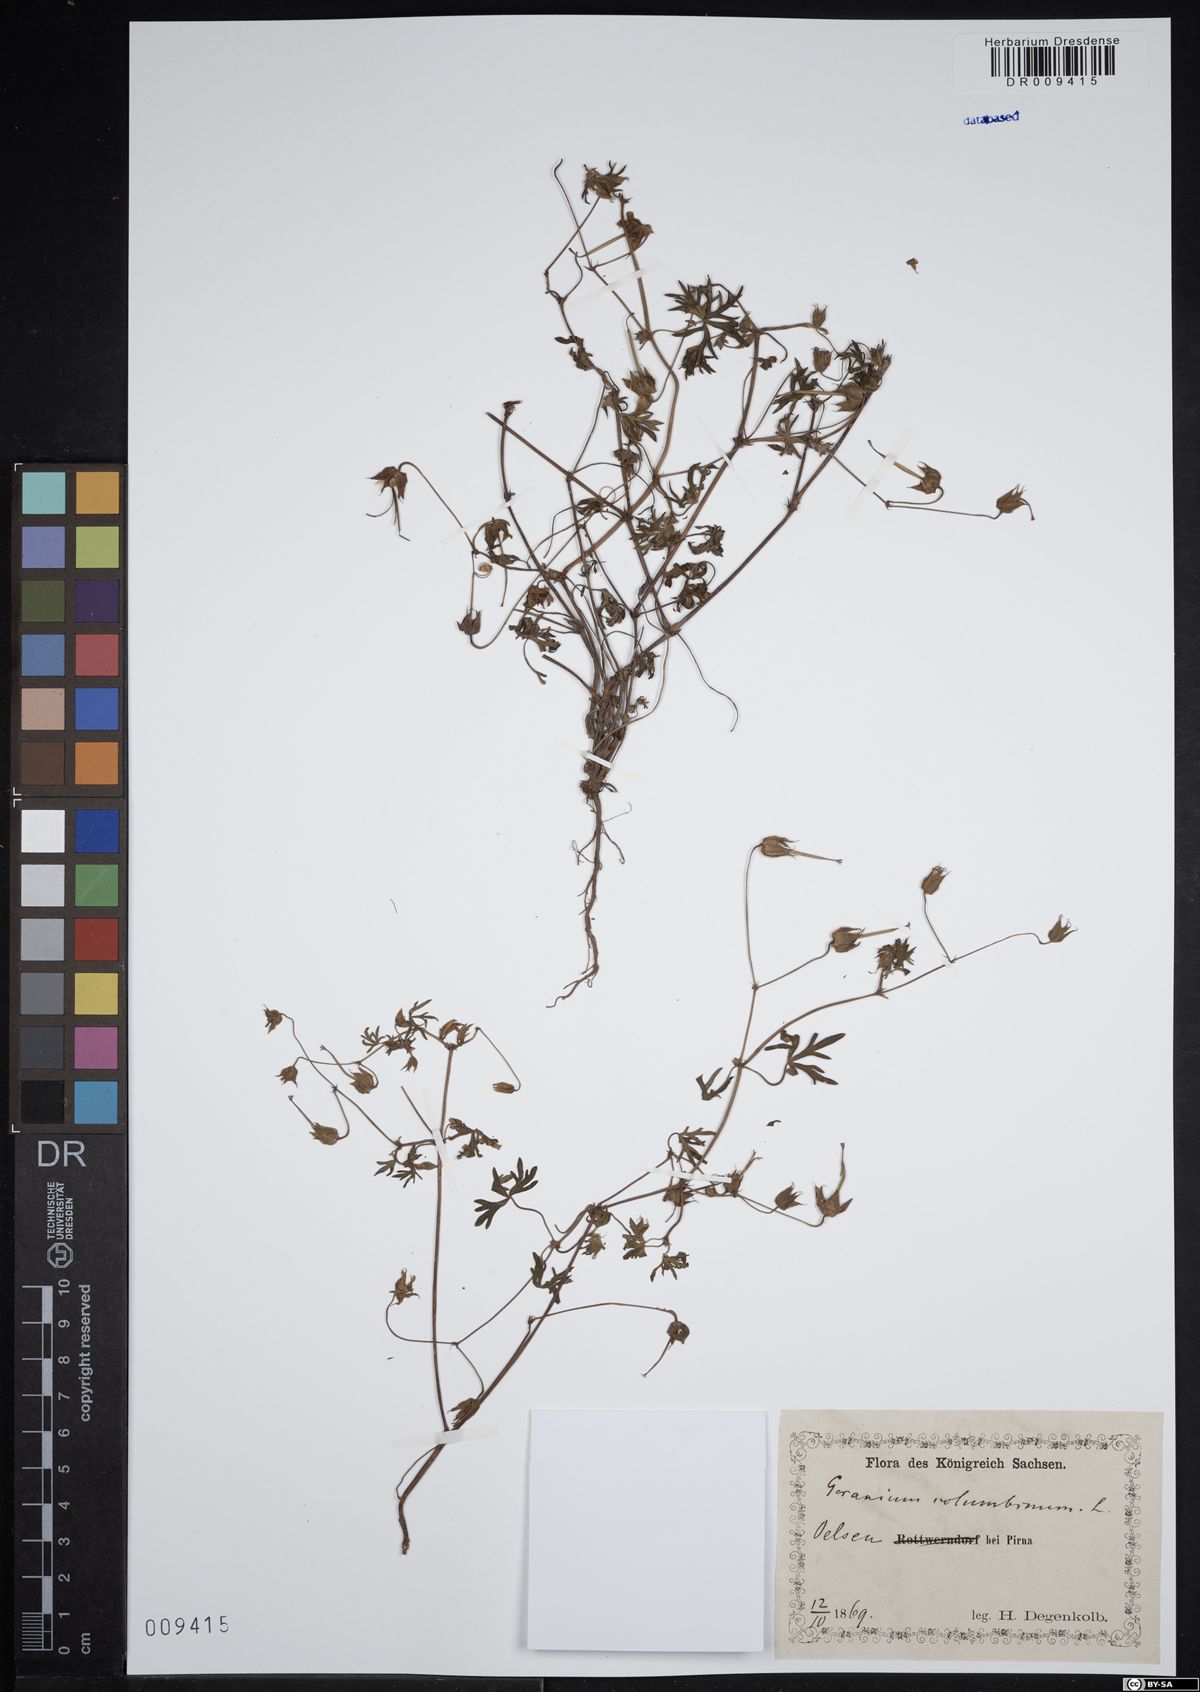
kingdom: Plantae
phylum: Tracheophyta
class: Magnoliopsida
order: Geraniales
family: Geraniaceae
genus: Geranium
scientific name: Geranium columbinum
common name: Long-stalked crane's-bill
